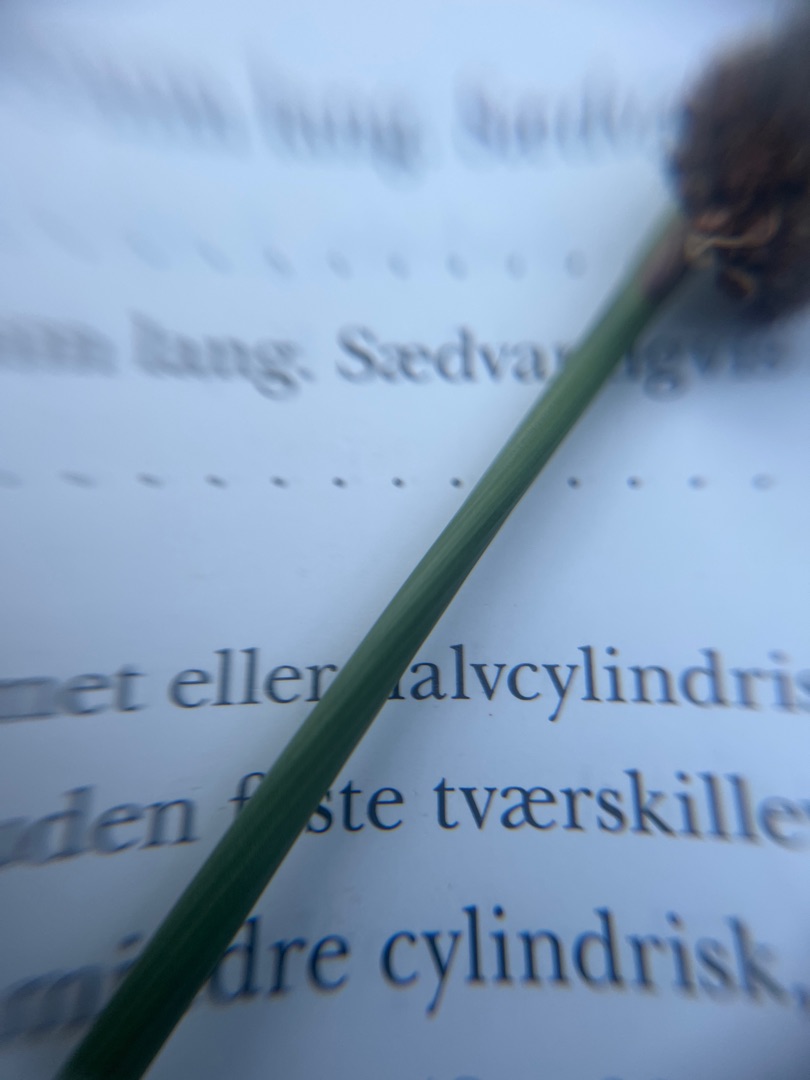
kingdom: Plantae
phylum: Tracheophyta
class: Liliopsida
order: Poales
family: Juncaceae
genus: Juncus
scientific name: Juncus effusus
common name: Lyse-siv
